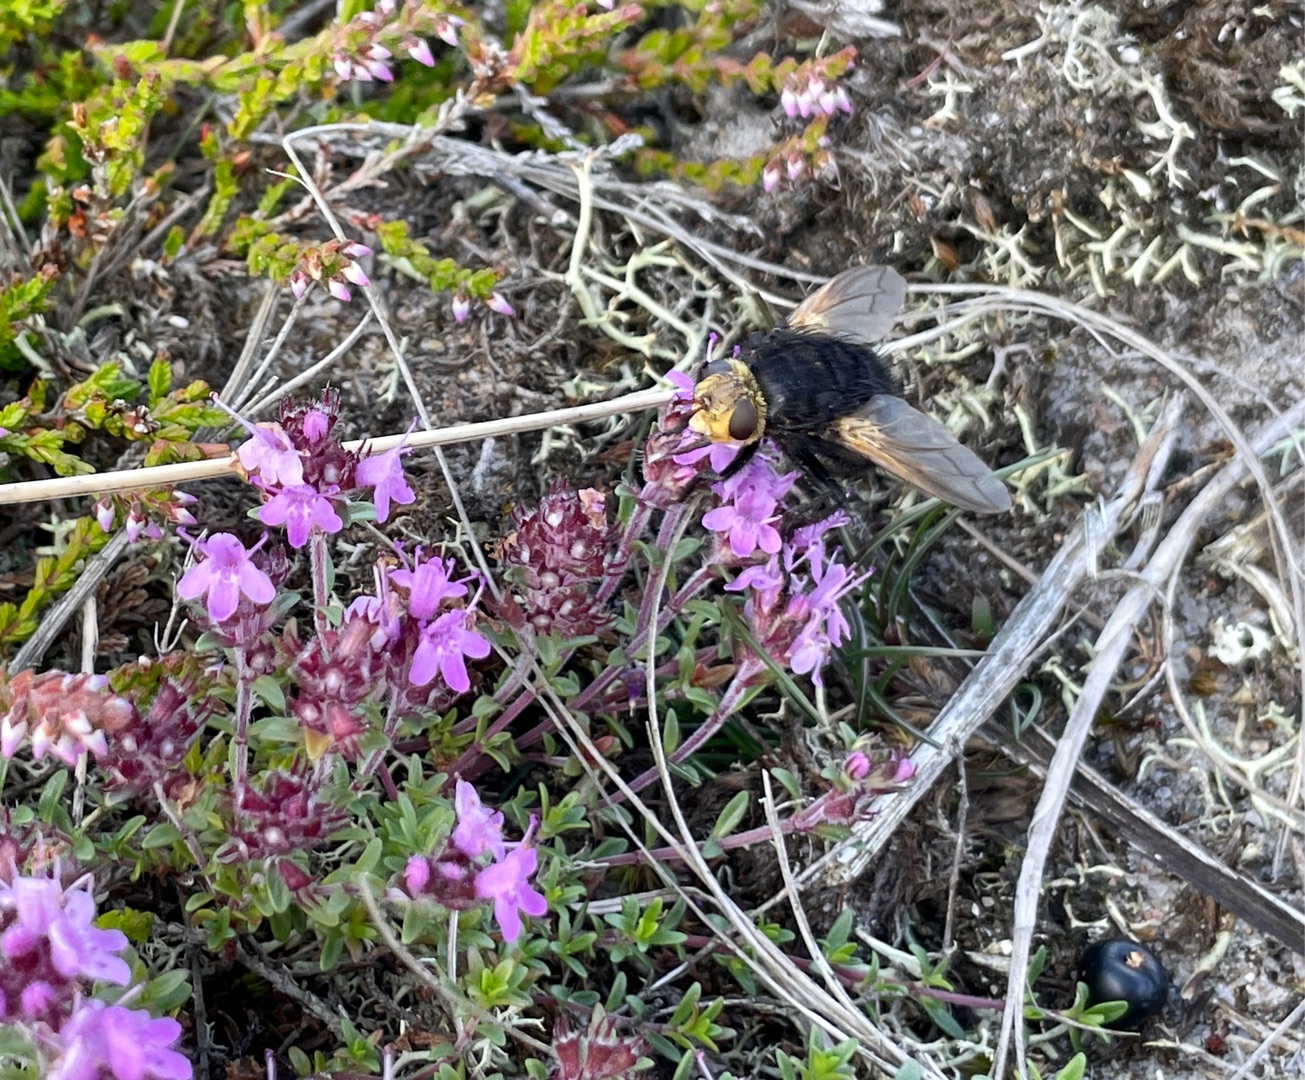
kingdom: Animalia
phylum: Arthropoda
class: Insecta
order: Diptera
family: Tachinidae
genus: Tachina
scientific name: Tachina grossa
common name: Kæmpefluen Harald
